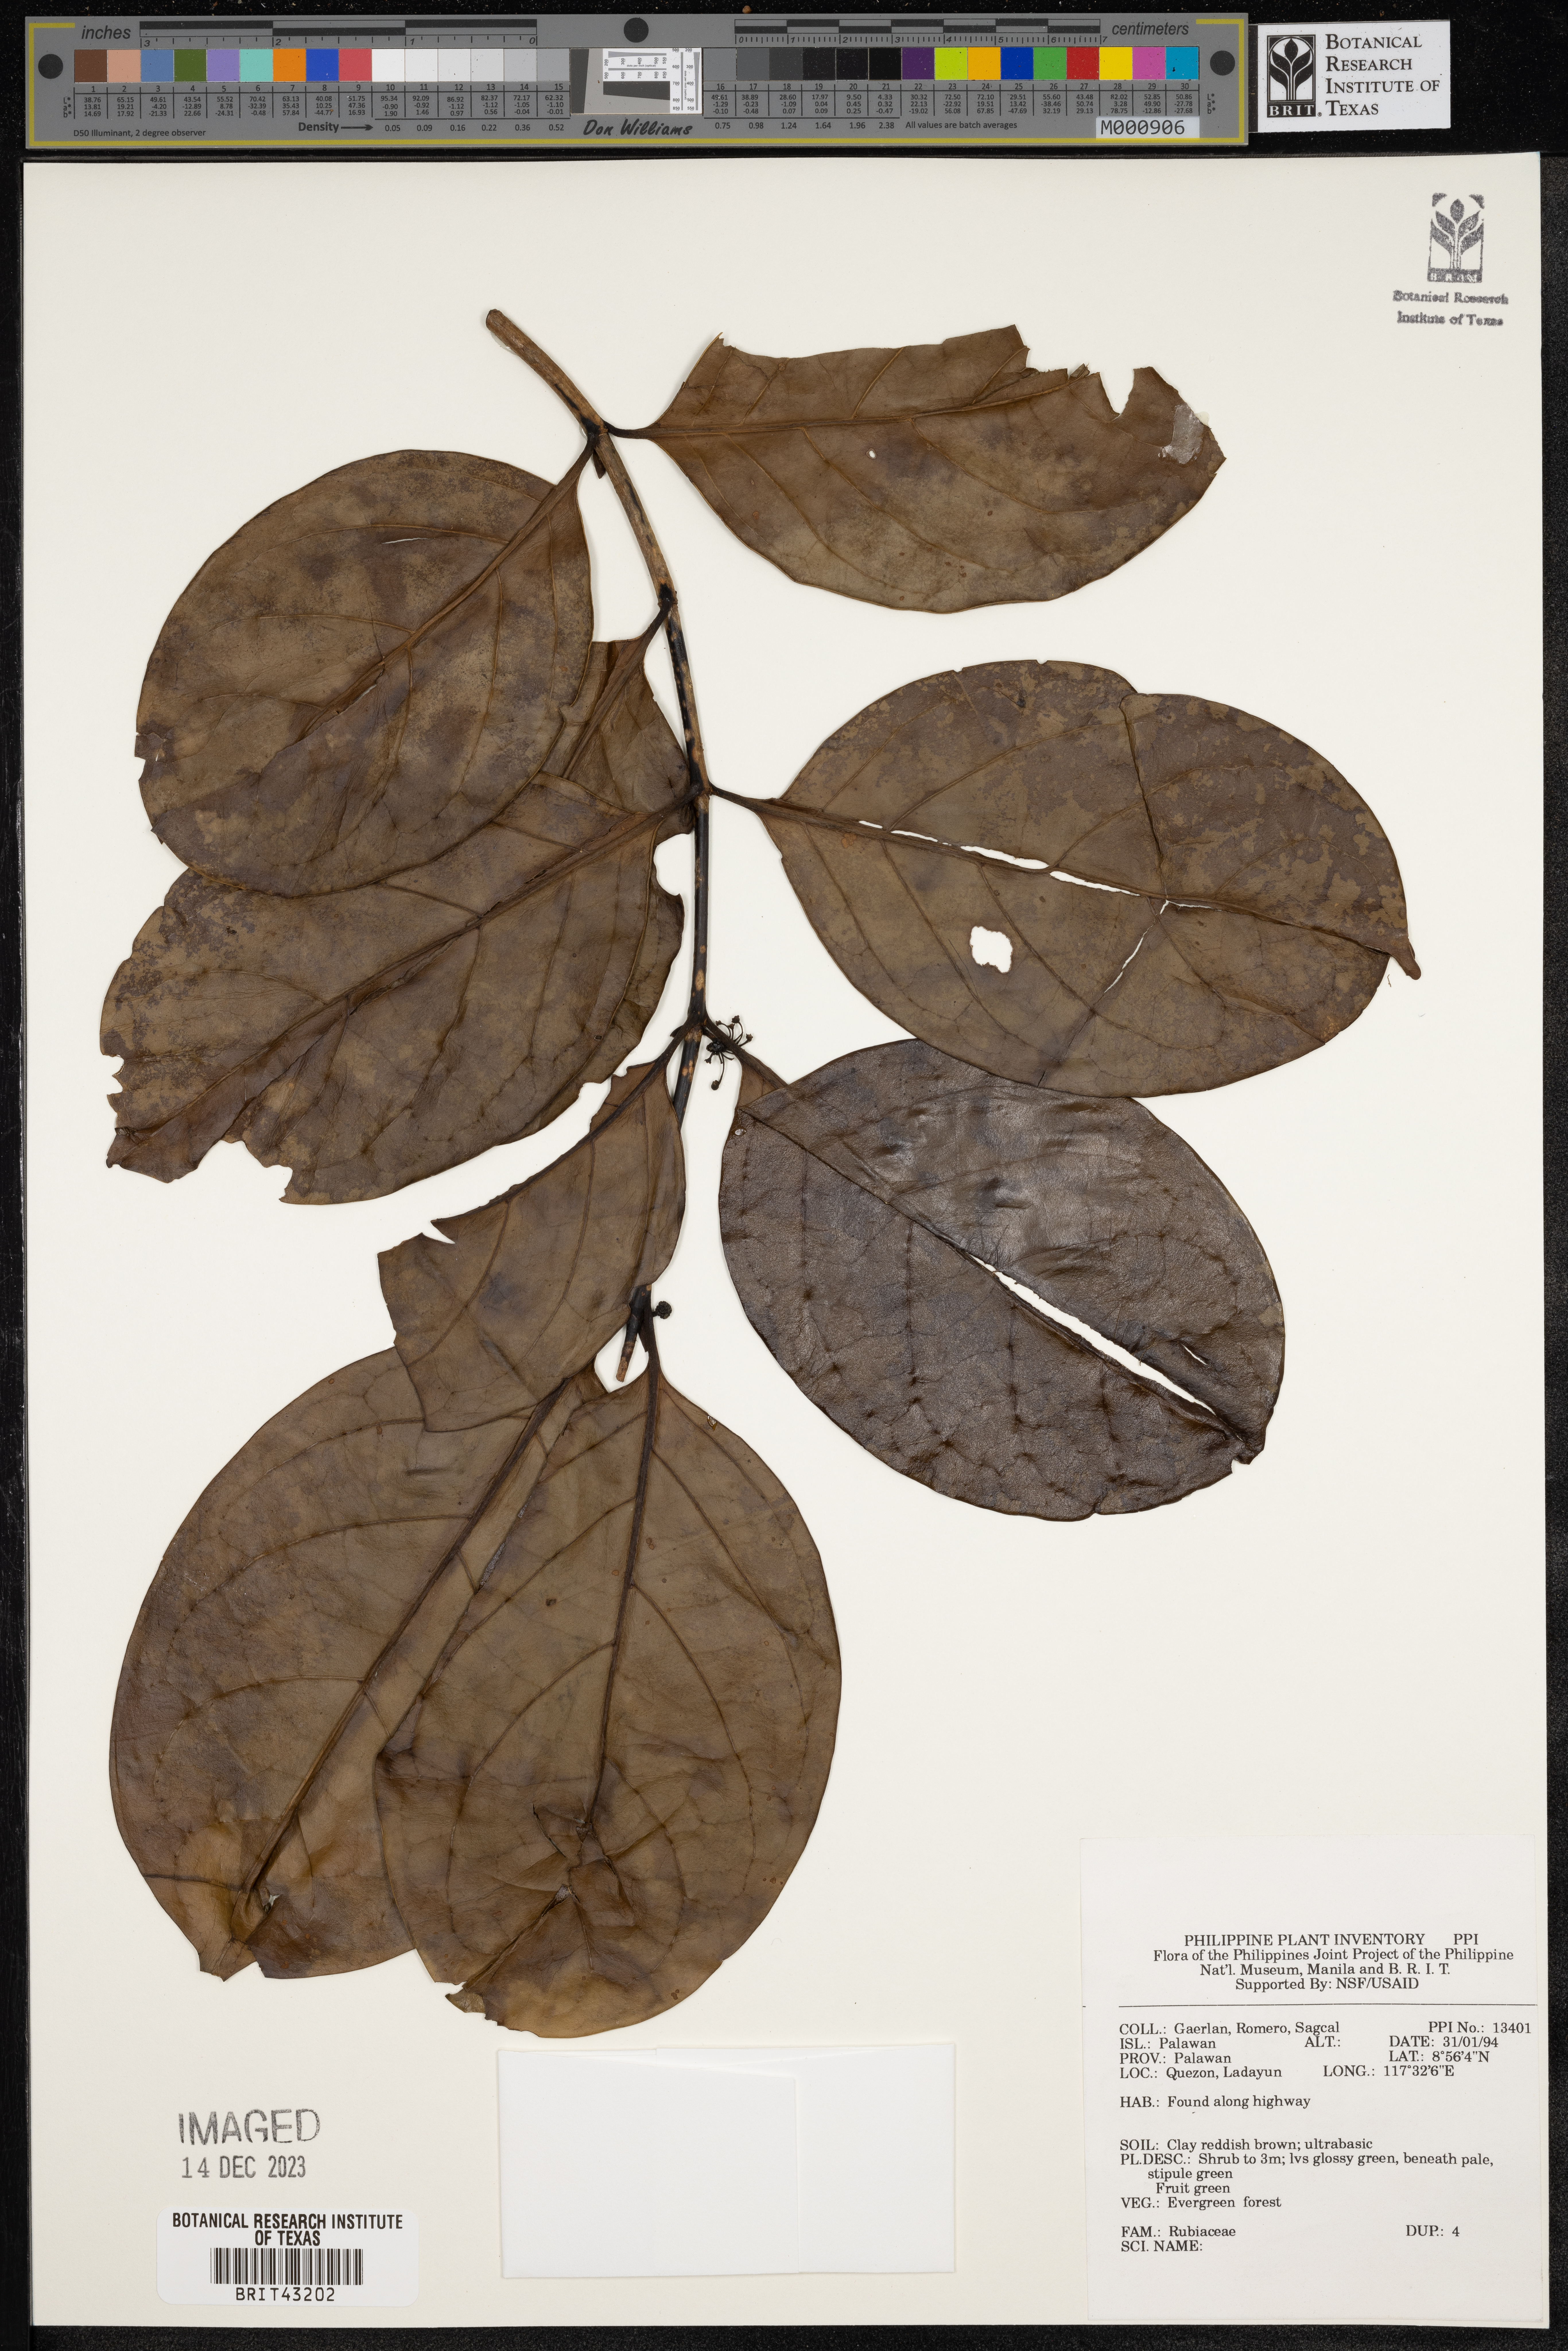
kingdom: Plantae
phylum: Tracheophyta
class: Magnoliopsida
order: Gentianales
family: Rubiaceae
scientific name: Rubiaceae
